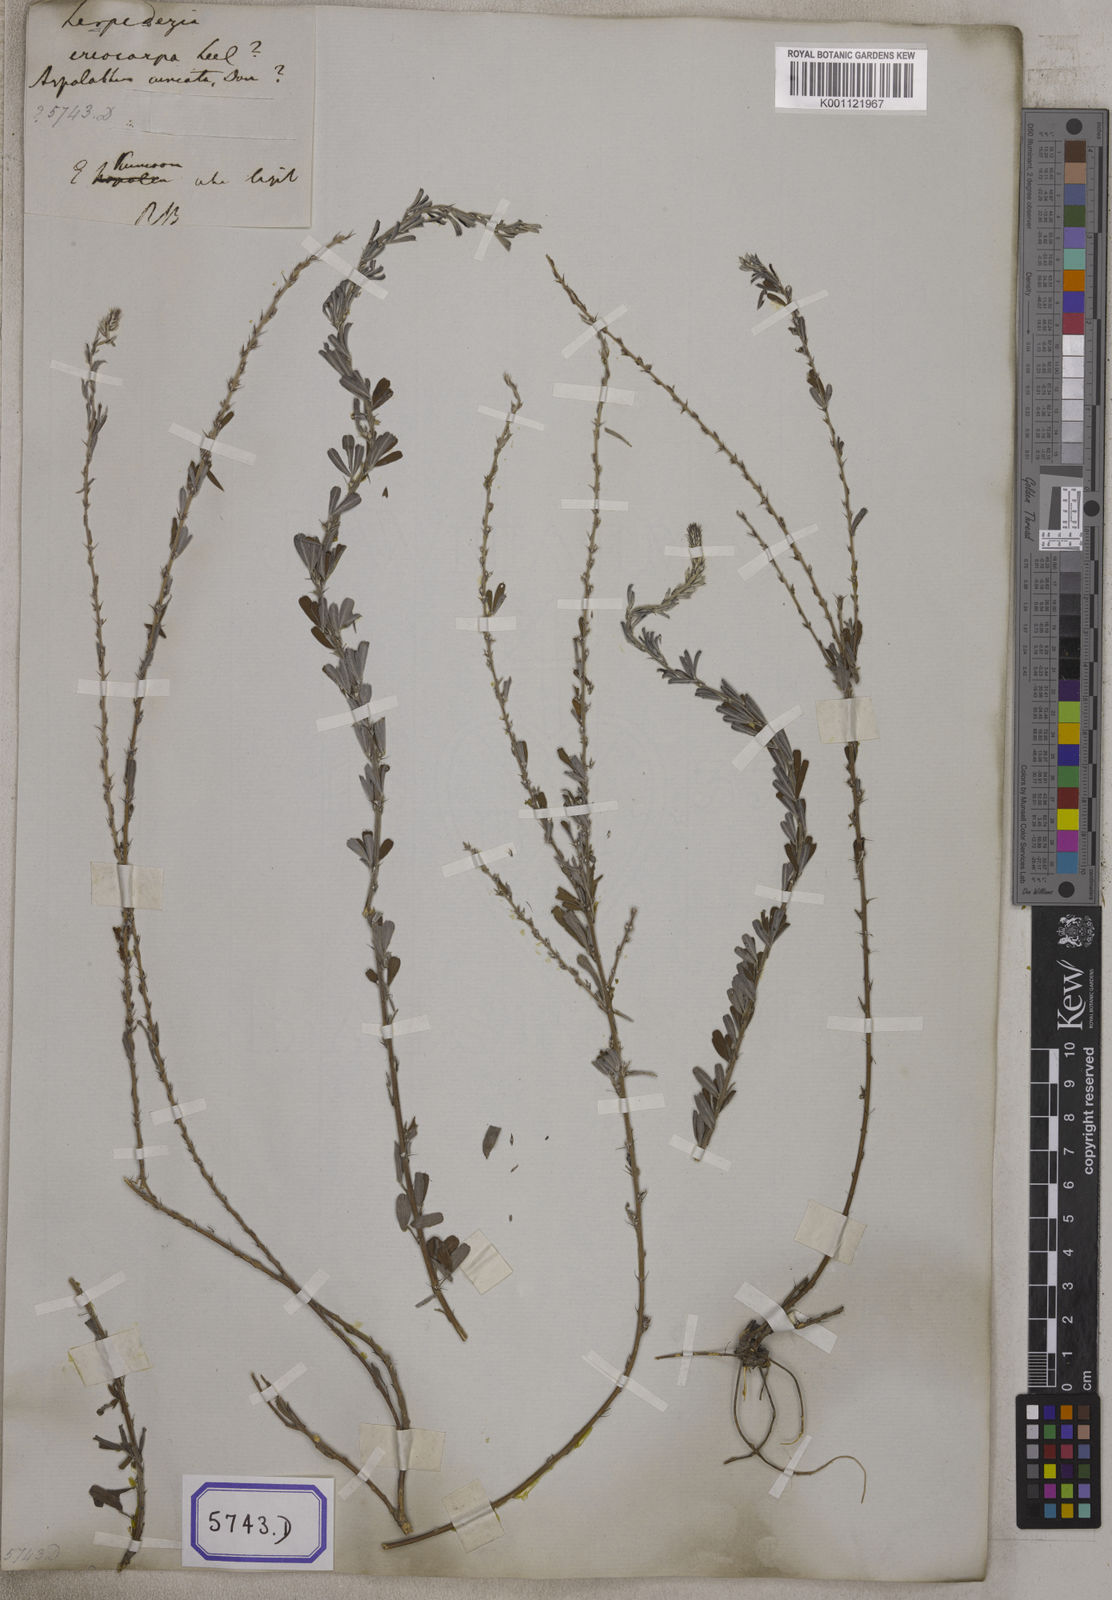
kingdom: Plantae
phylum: Tracheophyta
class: Magnoliopsida
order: Fabales
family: Fabaceae
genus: Indigofera
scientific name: Indigofera aspalathoides
